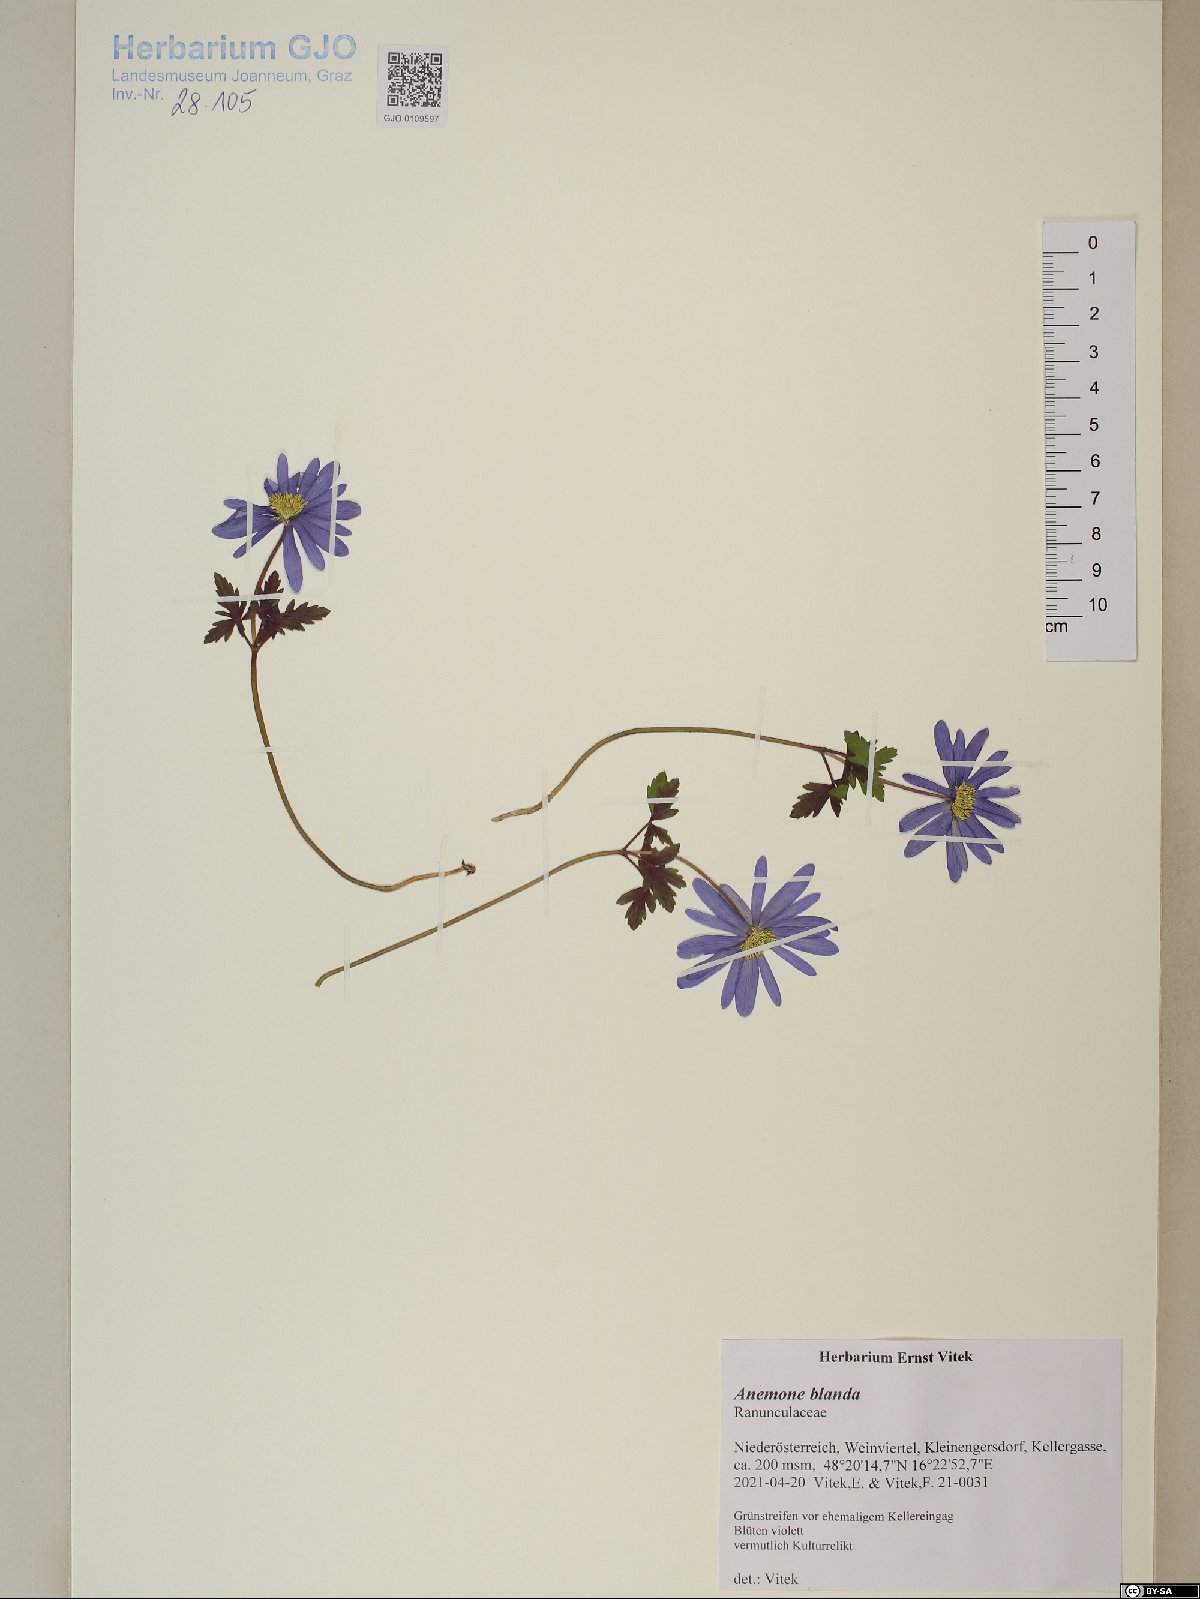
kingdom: Plantae
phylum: Tracheophyta
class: Magnoliopsida
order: Ranunculales
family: Ranunculaceae
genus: Anemone
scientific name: Anemone blanda
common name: Balkan anemone
